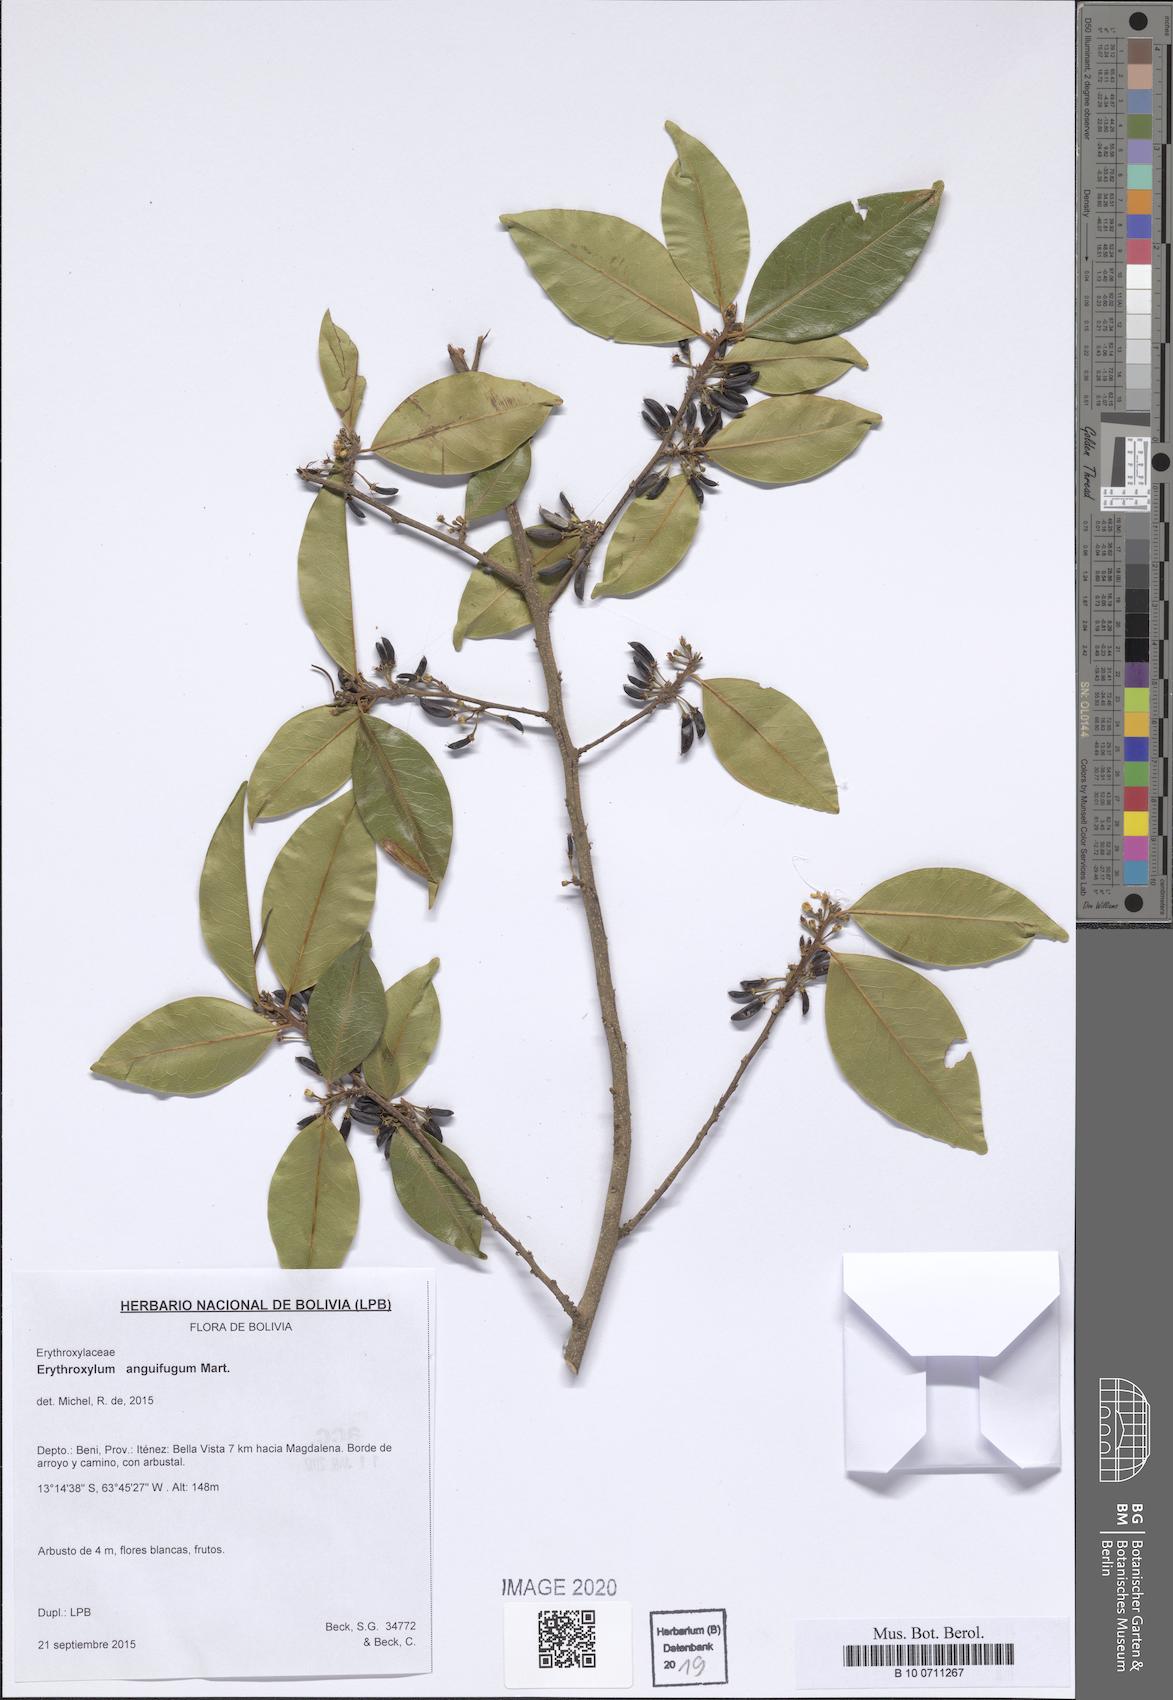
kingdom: Plantae
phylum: Tracheophyta
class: Magnoliopsida
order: Malpighiales
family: Erythroxylaceae
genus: Erythroxylum
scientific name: Erythroxylum anguifugum
